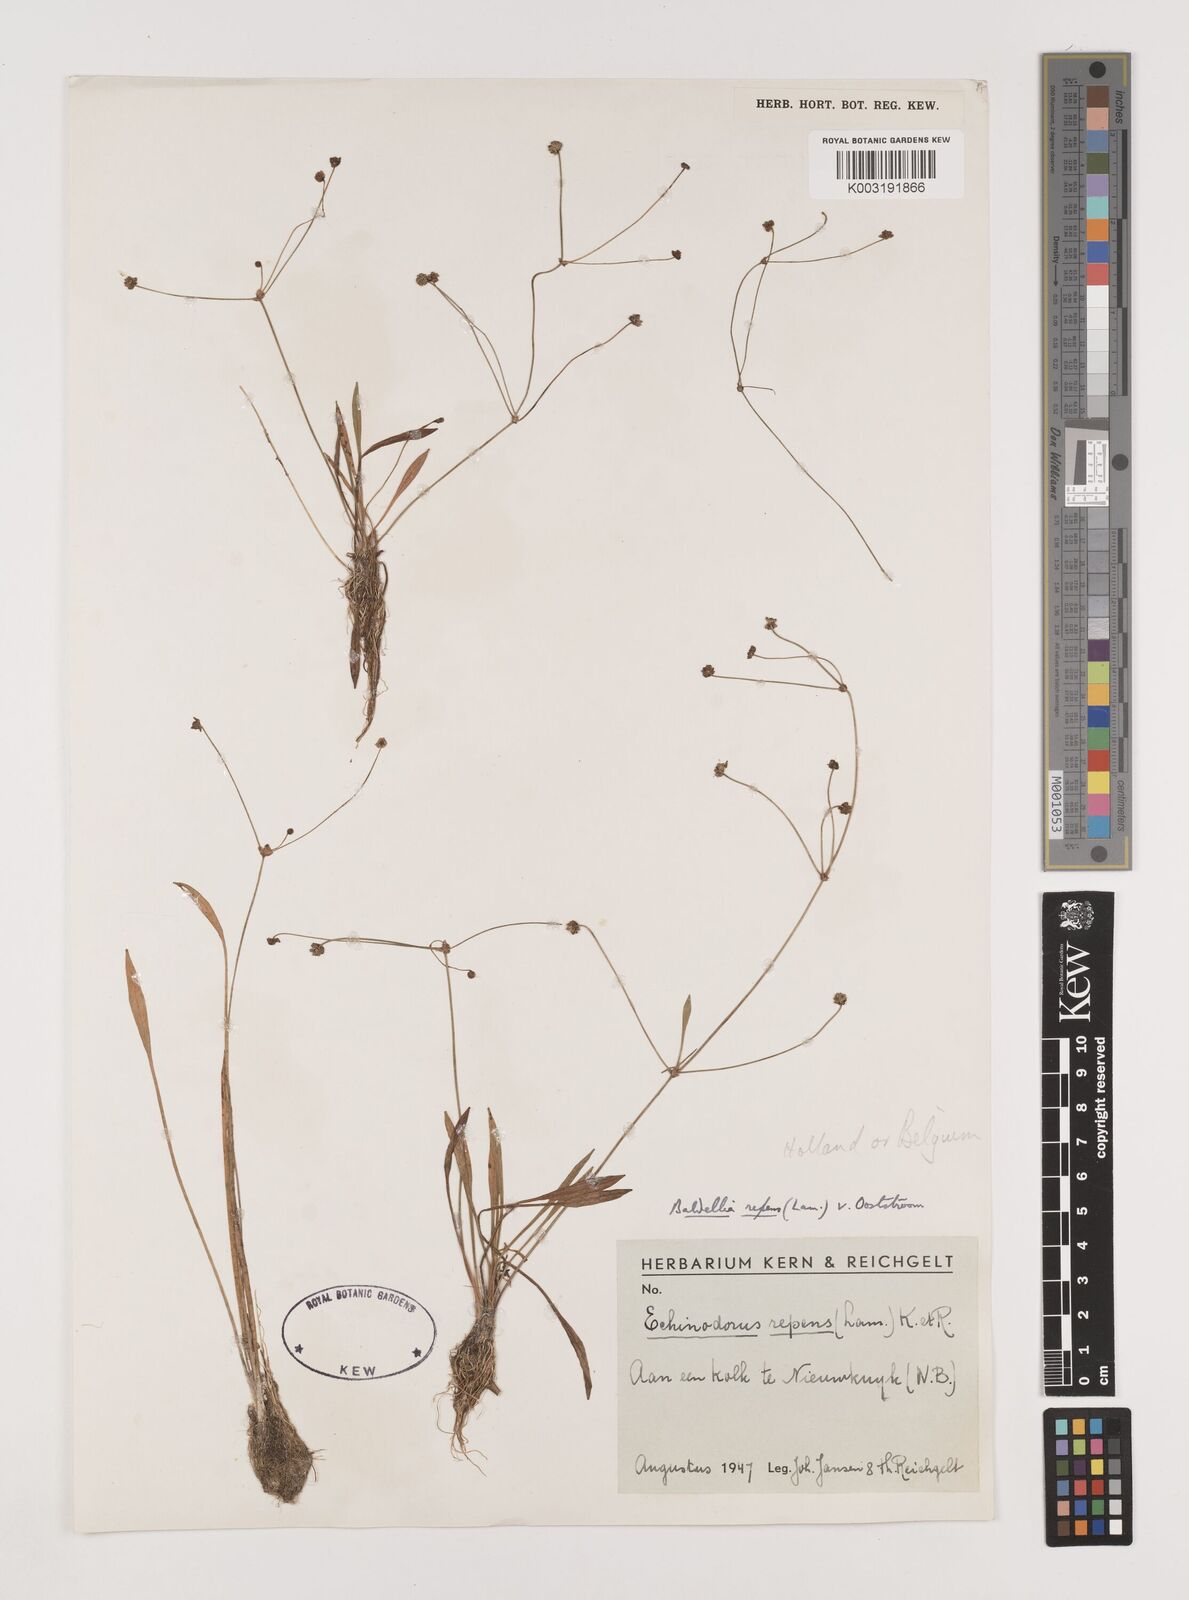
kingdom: Plantae
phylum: Tracheophyta
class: Liliopsida
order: Alismatales
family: Alismataceae
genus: Baldellia
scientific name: Baldellia repens
